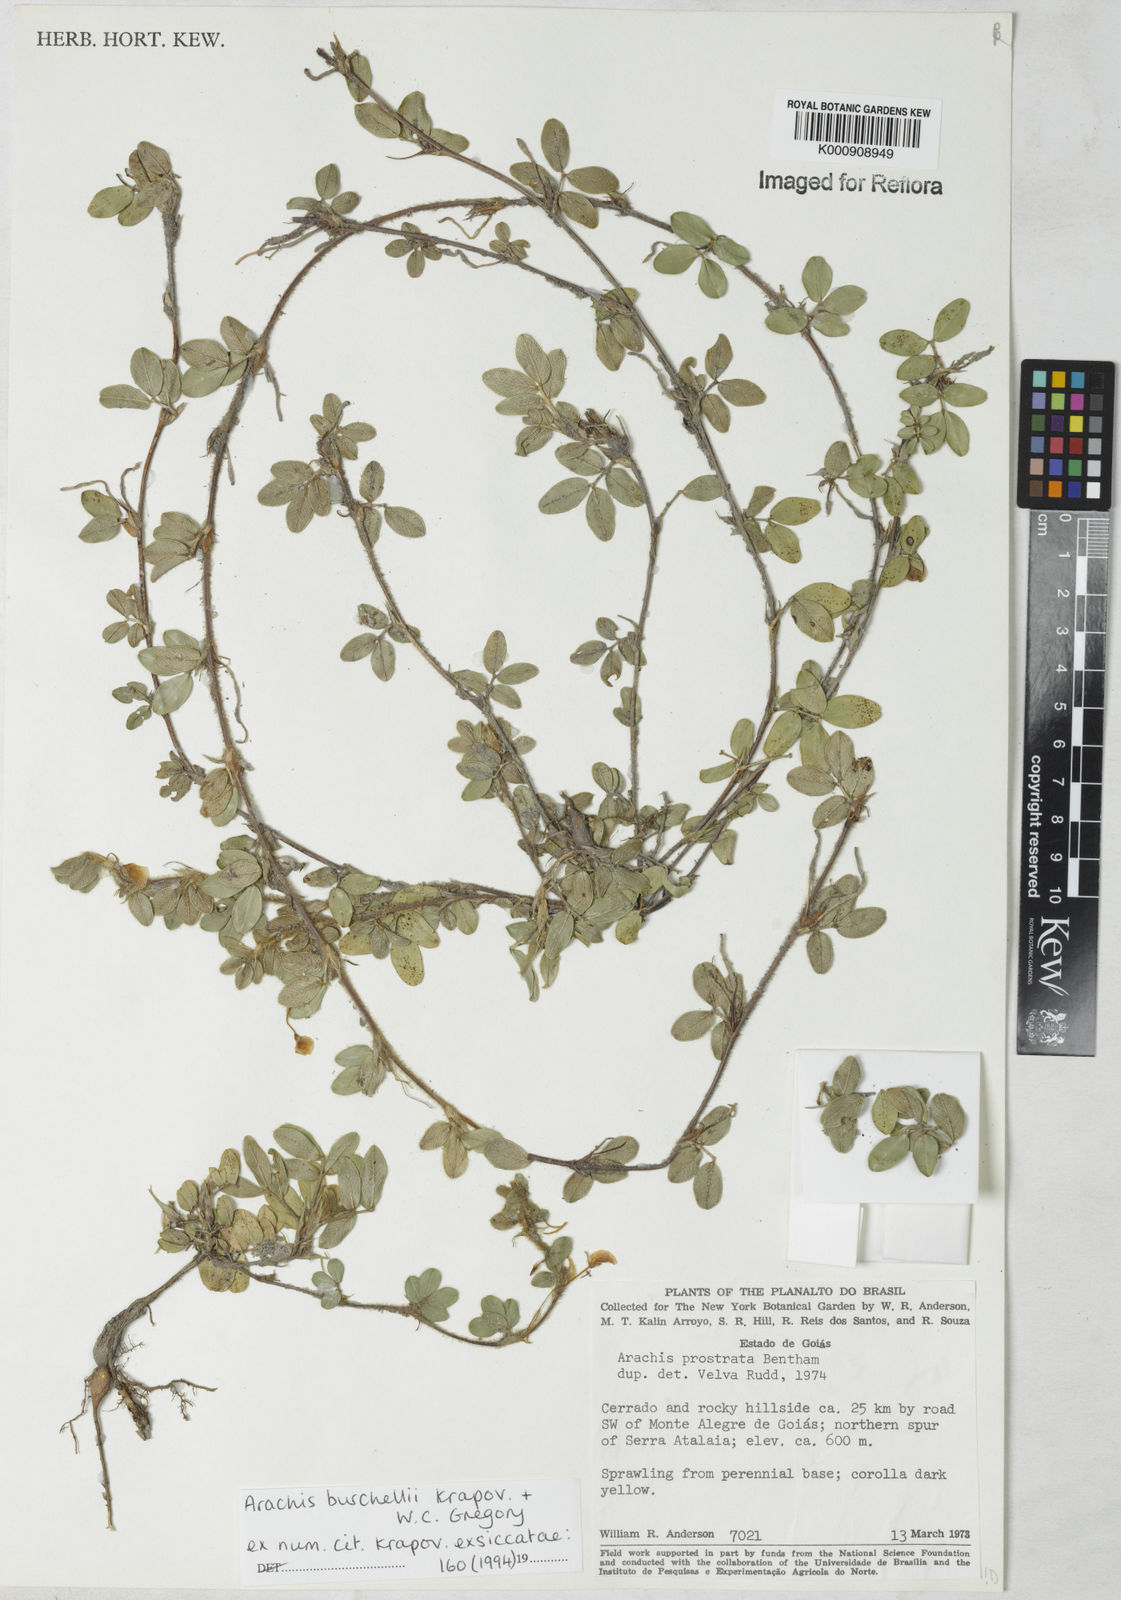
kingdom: Plantae
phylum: Tracheophyta
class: Magnoliopsida
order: Fabales
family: Fabaceae
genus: Arachis
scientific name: Arachis burchellii
